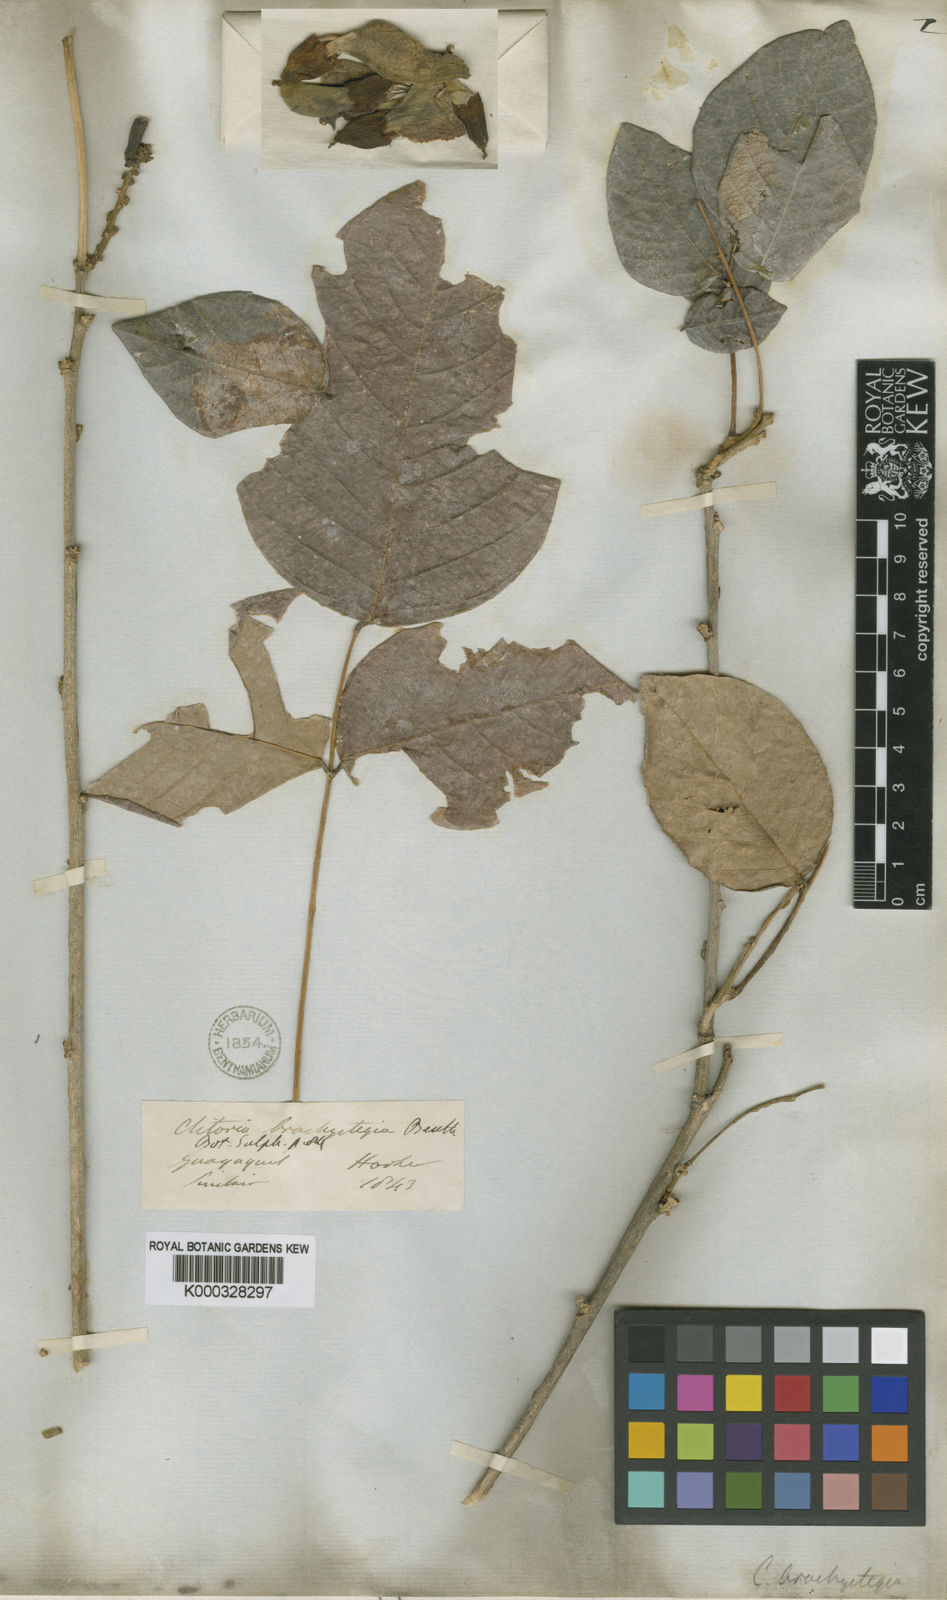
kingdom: Plantae
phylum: Tracheophyta
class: Magnoliopsida
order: Fabales
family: Fabaceae
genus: Clitoria
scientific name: Clitoria brachystegia
